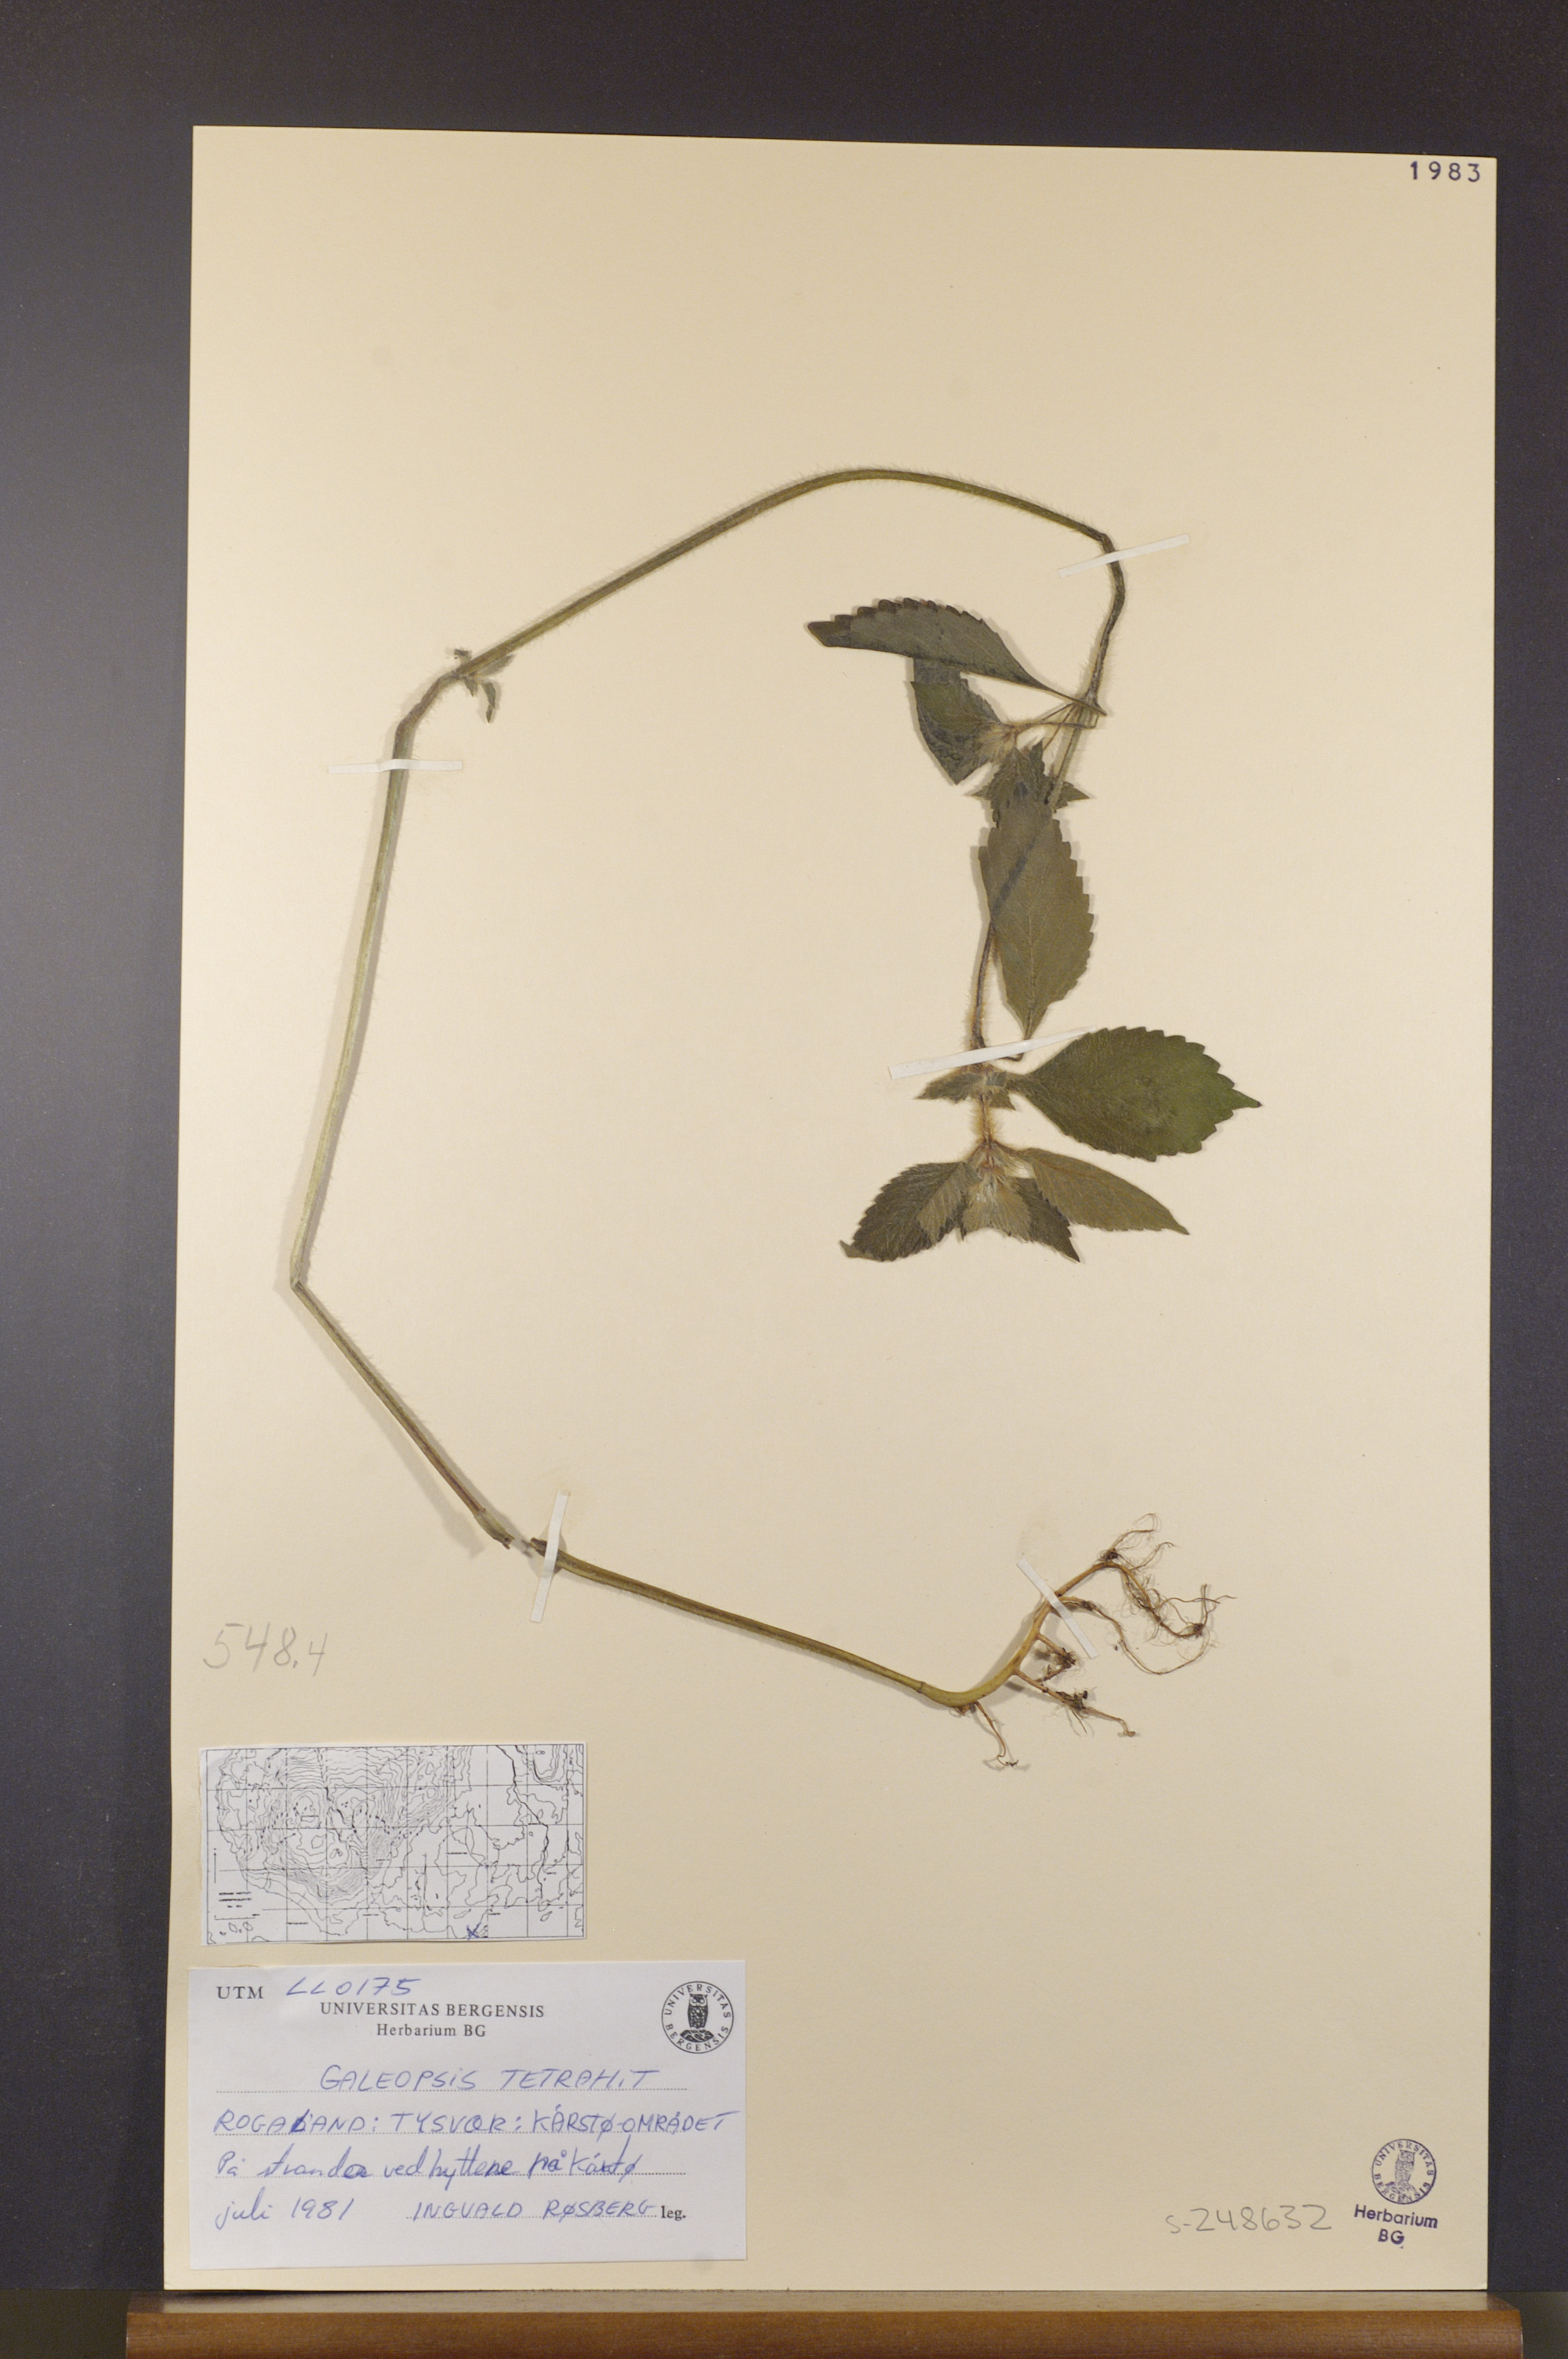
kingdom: Plantae
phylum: Tracheophyta
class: Magnoliopsida
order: Lamiales
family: Lamiaceae
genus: Galeopsis
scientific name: Galeopsis tetrahit
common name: Common hemp-nettle
